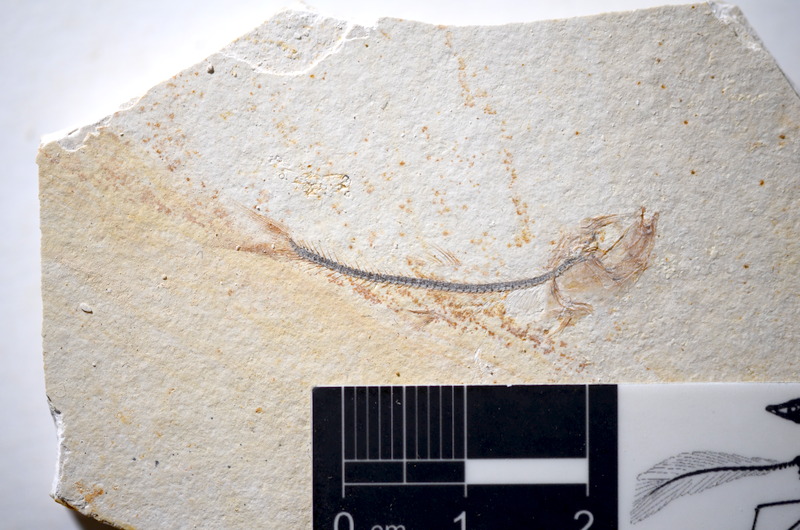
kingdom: Animalia
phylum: Chordata
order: Salmoniformes
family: Orthogonikleithridae
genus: Orthogonikleithrus
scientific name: Orthogonikleithrus hoelli
